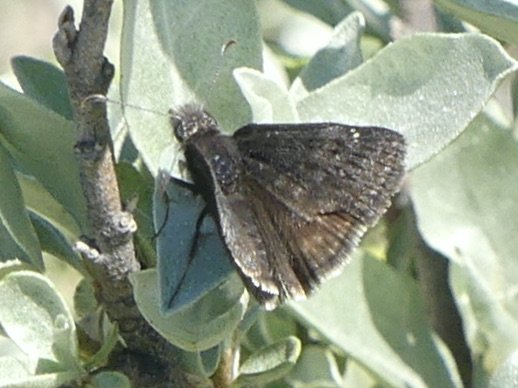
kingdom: Animalia
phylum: Arthropoda
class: Insecta
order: Lepidoptera
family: Hesperiidae
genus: Gesta
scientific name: Gesta
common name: Persius Duskywing
